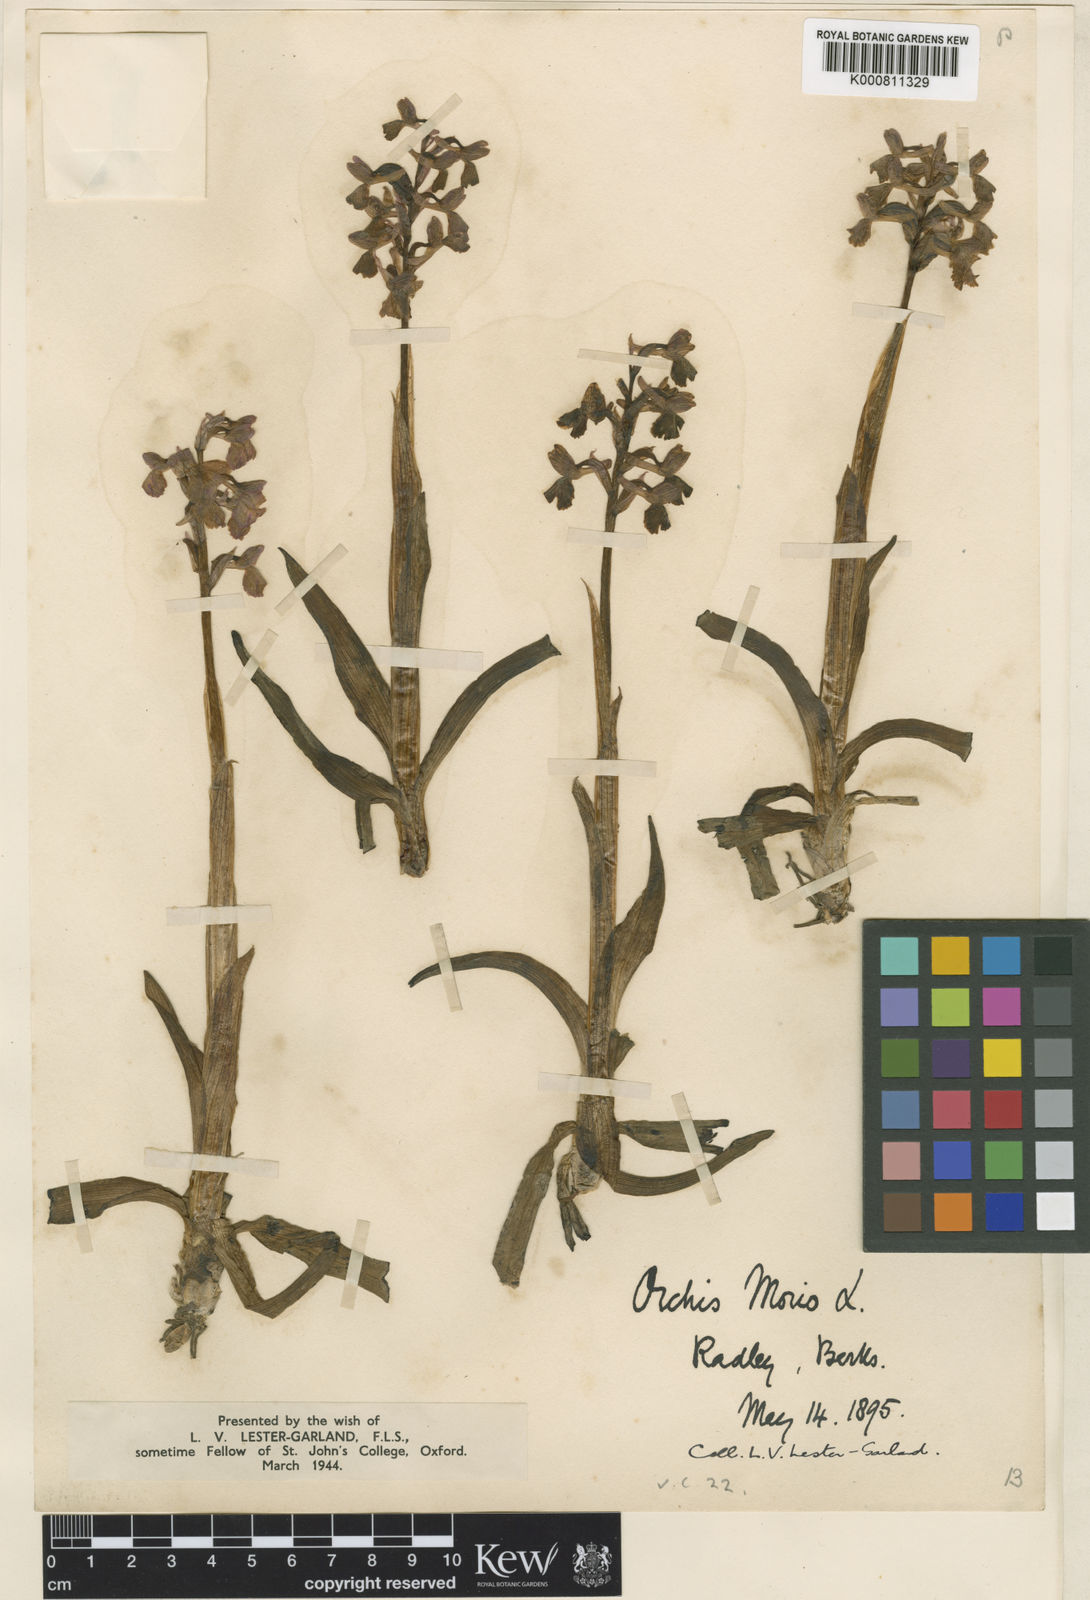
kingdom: Plantae
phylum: Tracheophyta
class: Liliopsida
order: Asparagales
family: Orchidaceae
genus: Anacamptis
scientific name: Anacamptis morio
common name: Green-winged orchid
